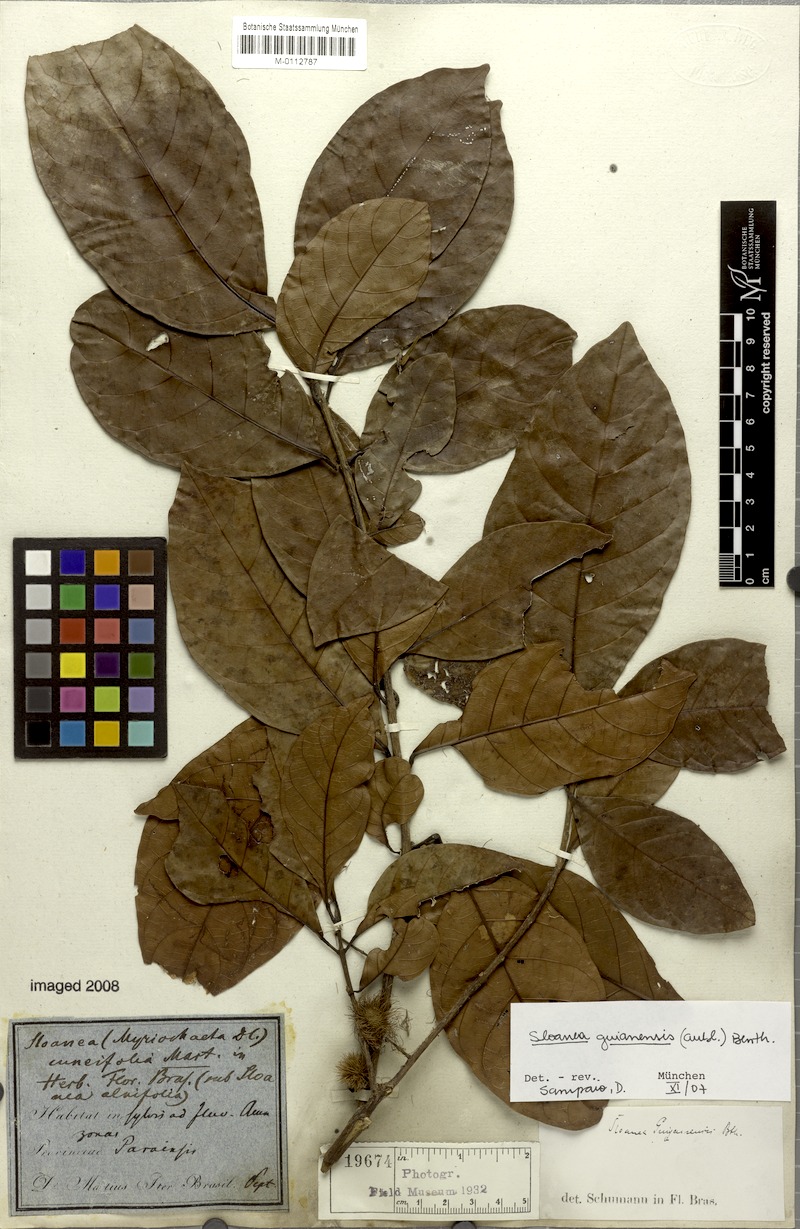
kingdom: Plantae
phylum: Tracheophyta
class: Magnoliopsida
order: Oxalidales
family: Elaeocarpaceae
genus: Sloanea
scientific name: Sloanea guianensis
